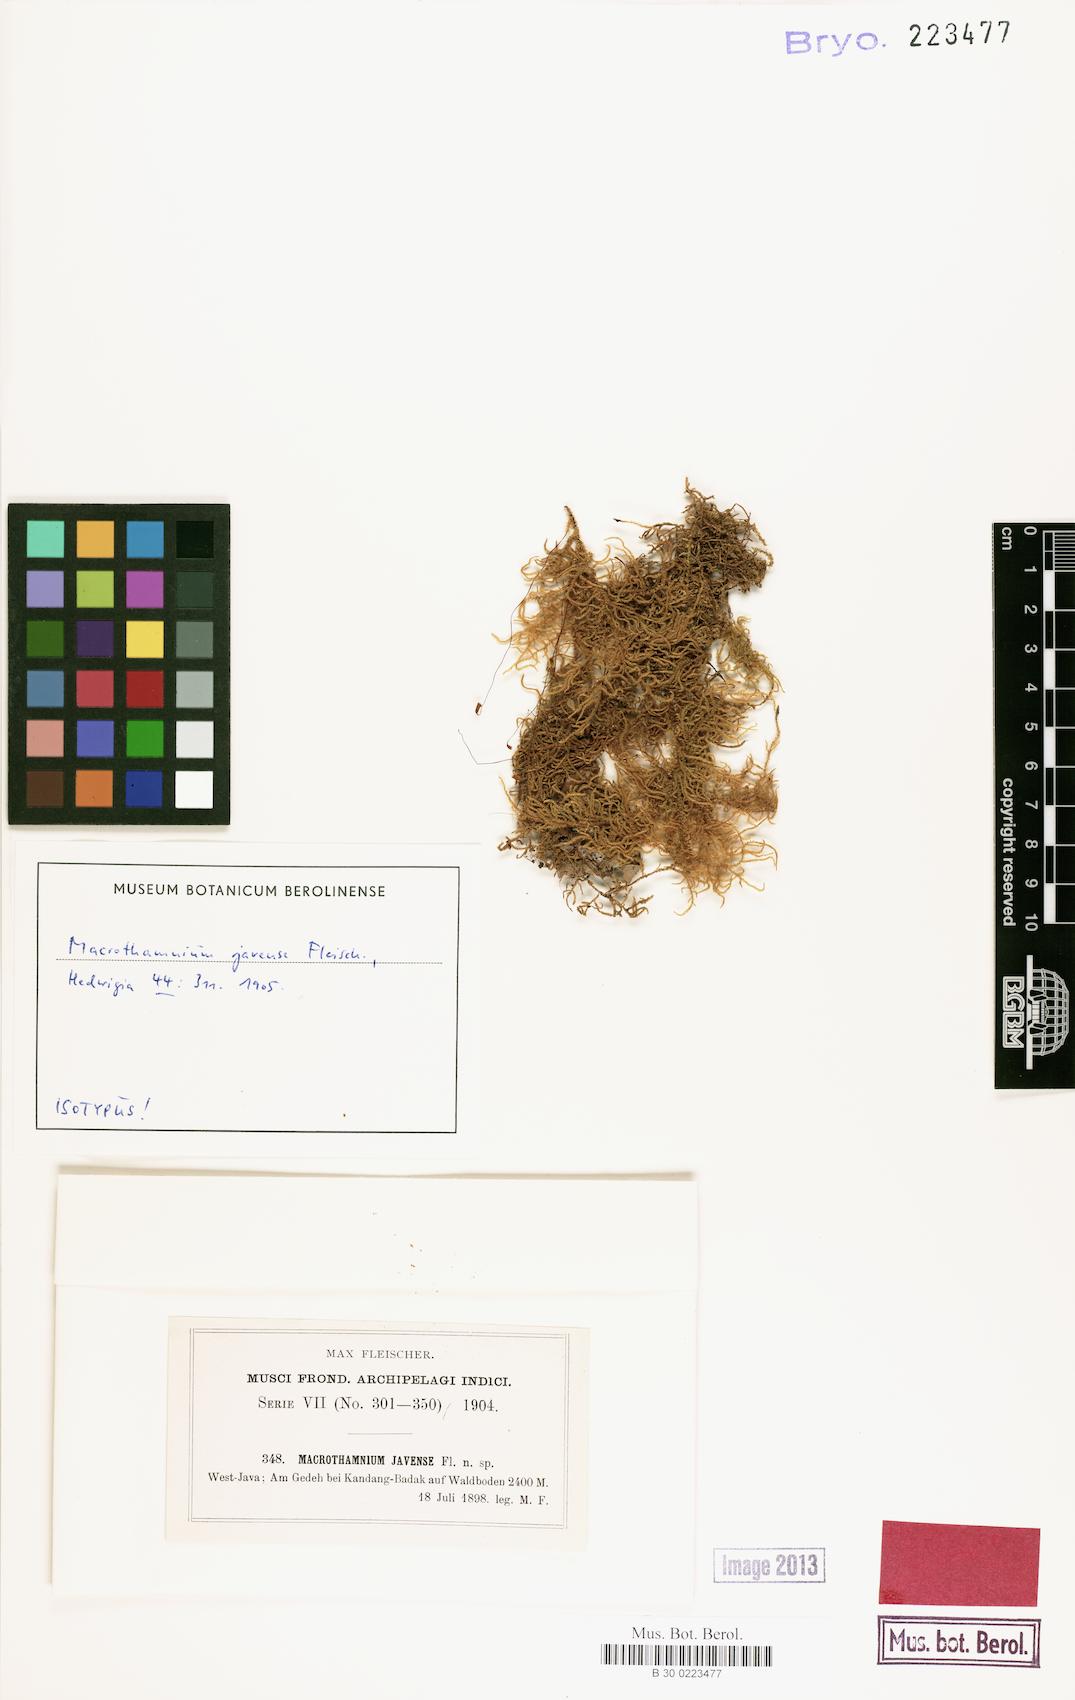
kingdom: Plantae
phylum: Bryophyta
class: Bryopsida
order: Hypnales
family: Hylocomiaceae
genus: Macrothamnium
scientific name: Macrothamnium javense
